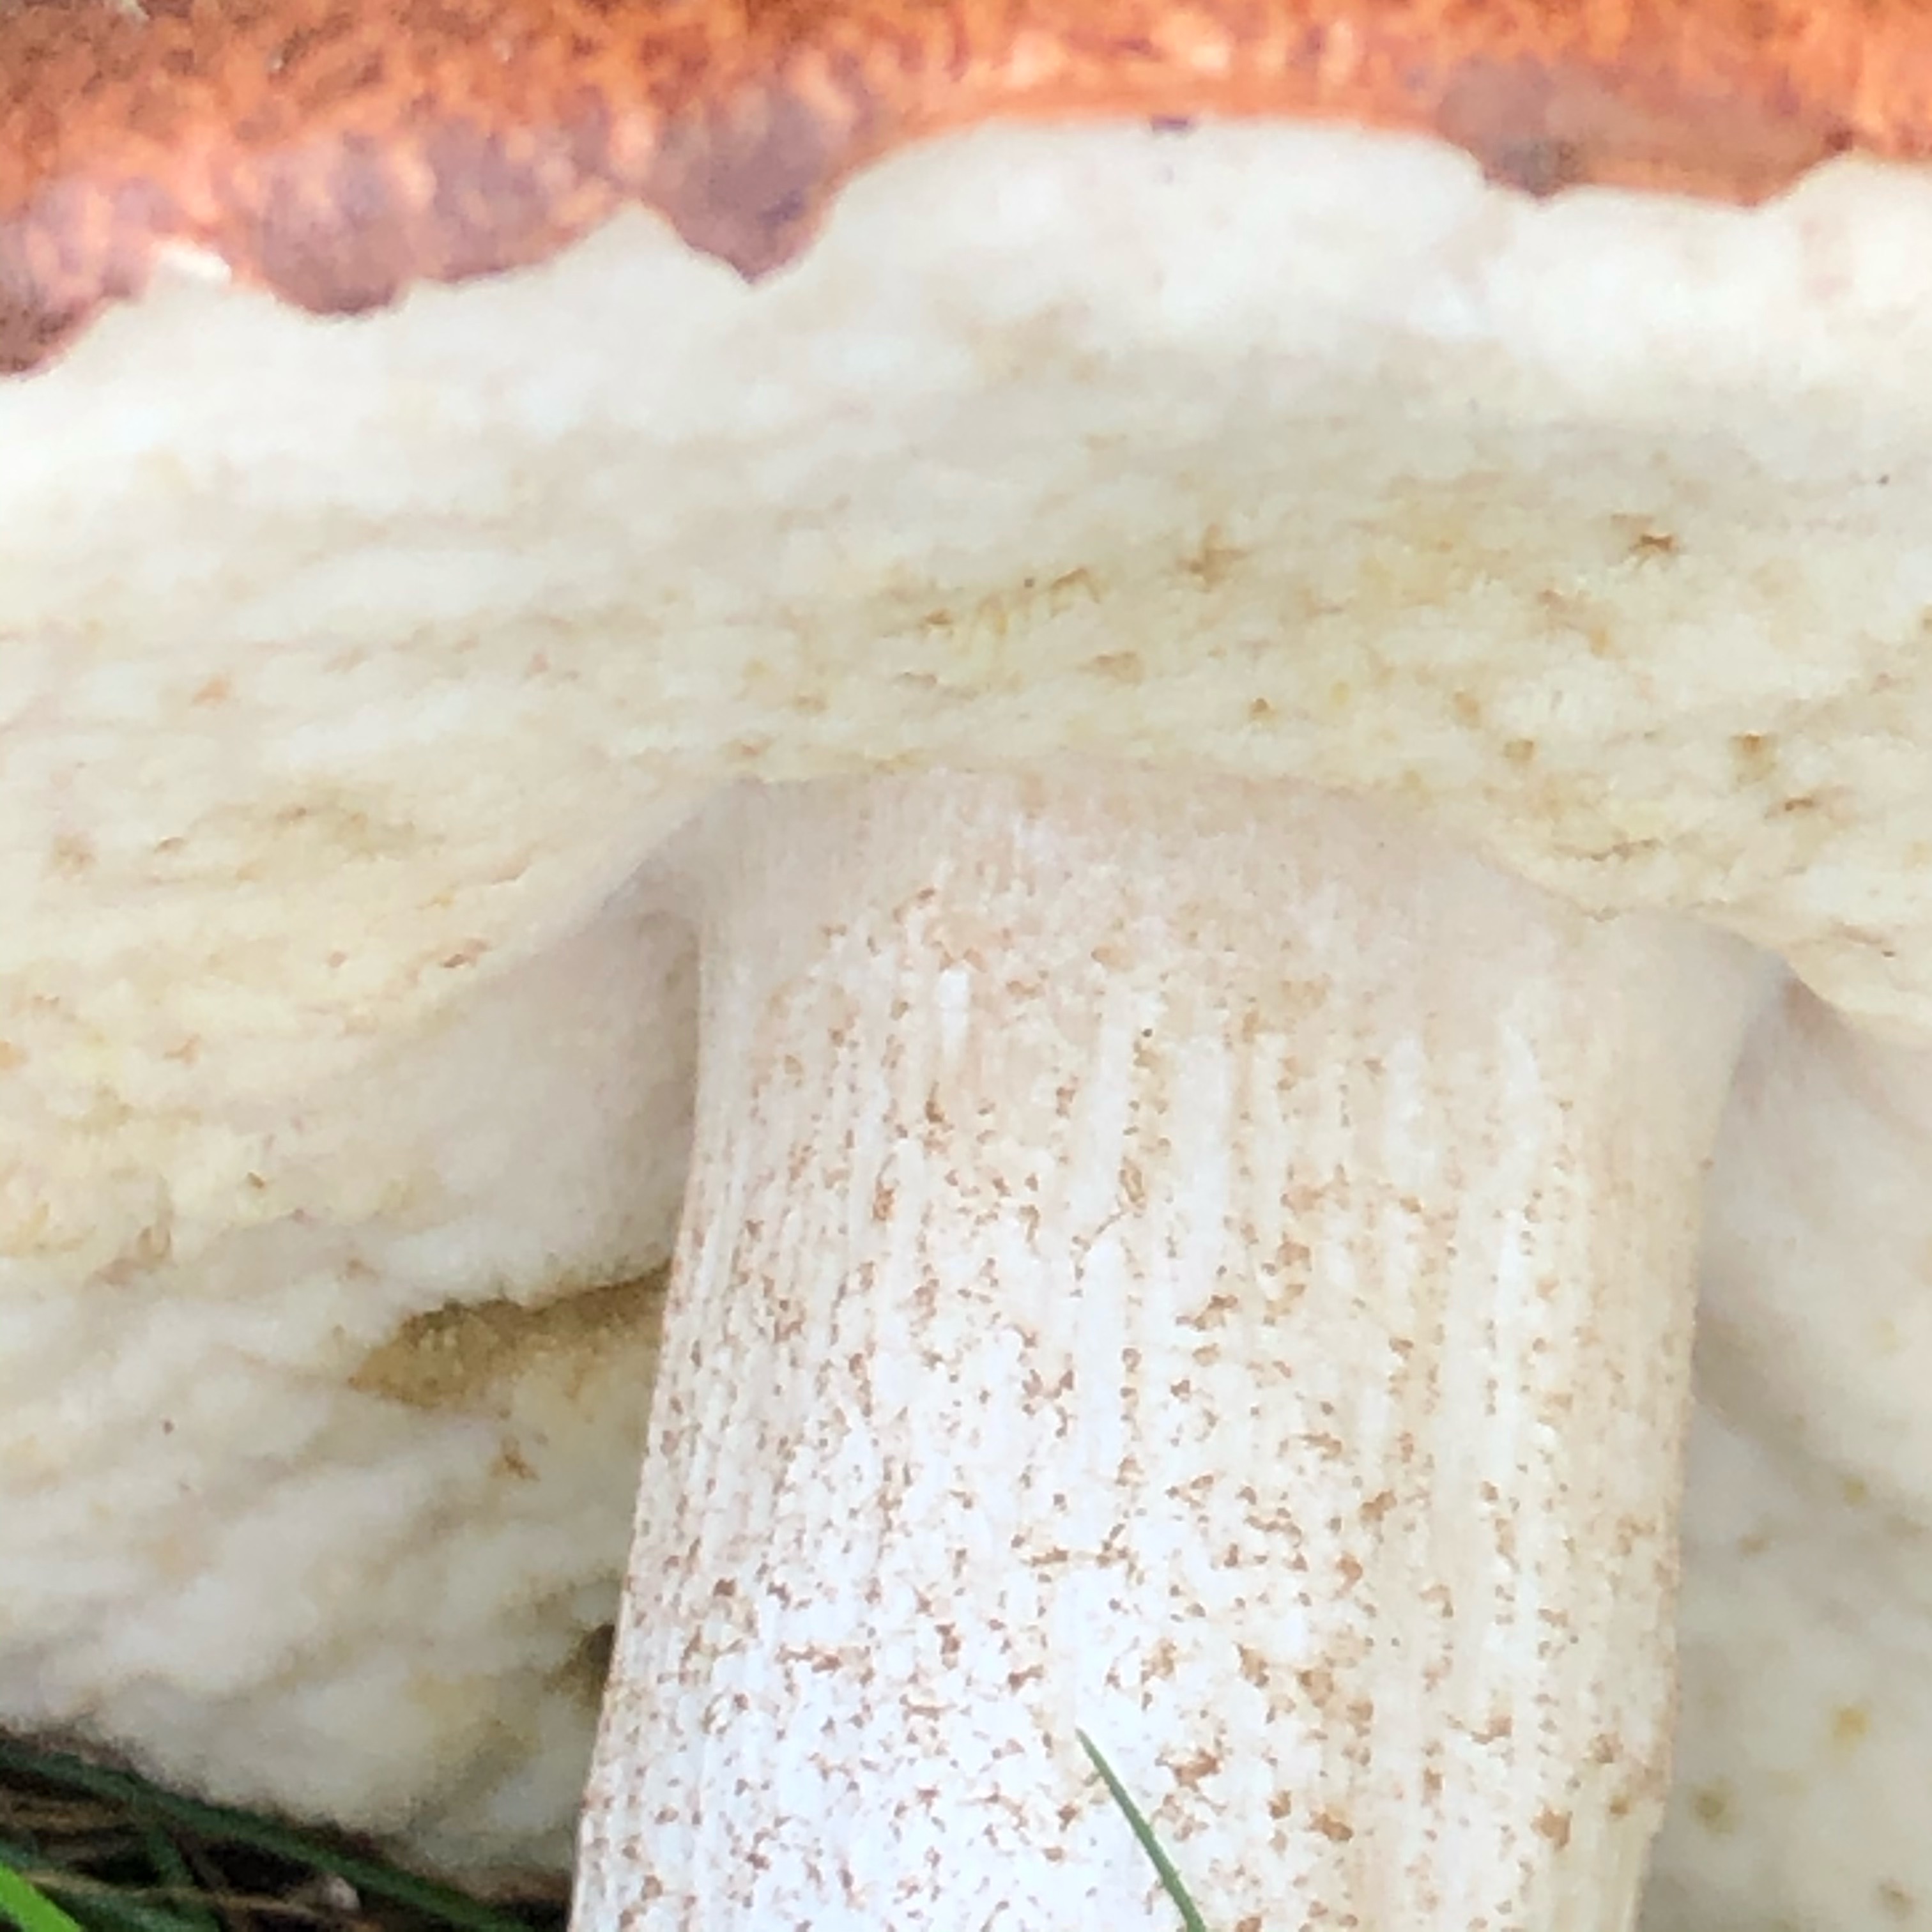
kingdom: Fungi
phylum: Basidiomycota
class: Agaricomycetes
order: Boletales
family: Boletaceae
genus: Leccinum
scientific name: Leccinum albostipitatum
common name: aspe-skælrørhat
